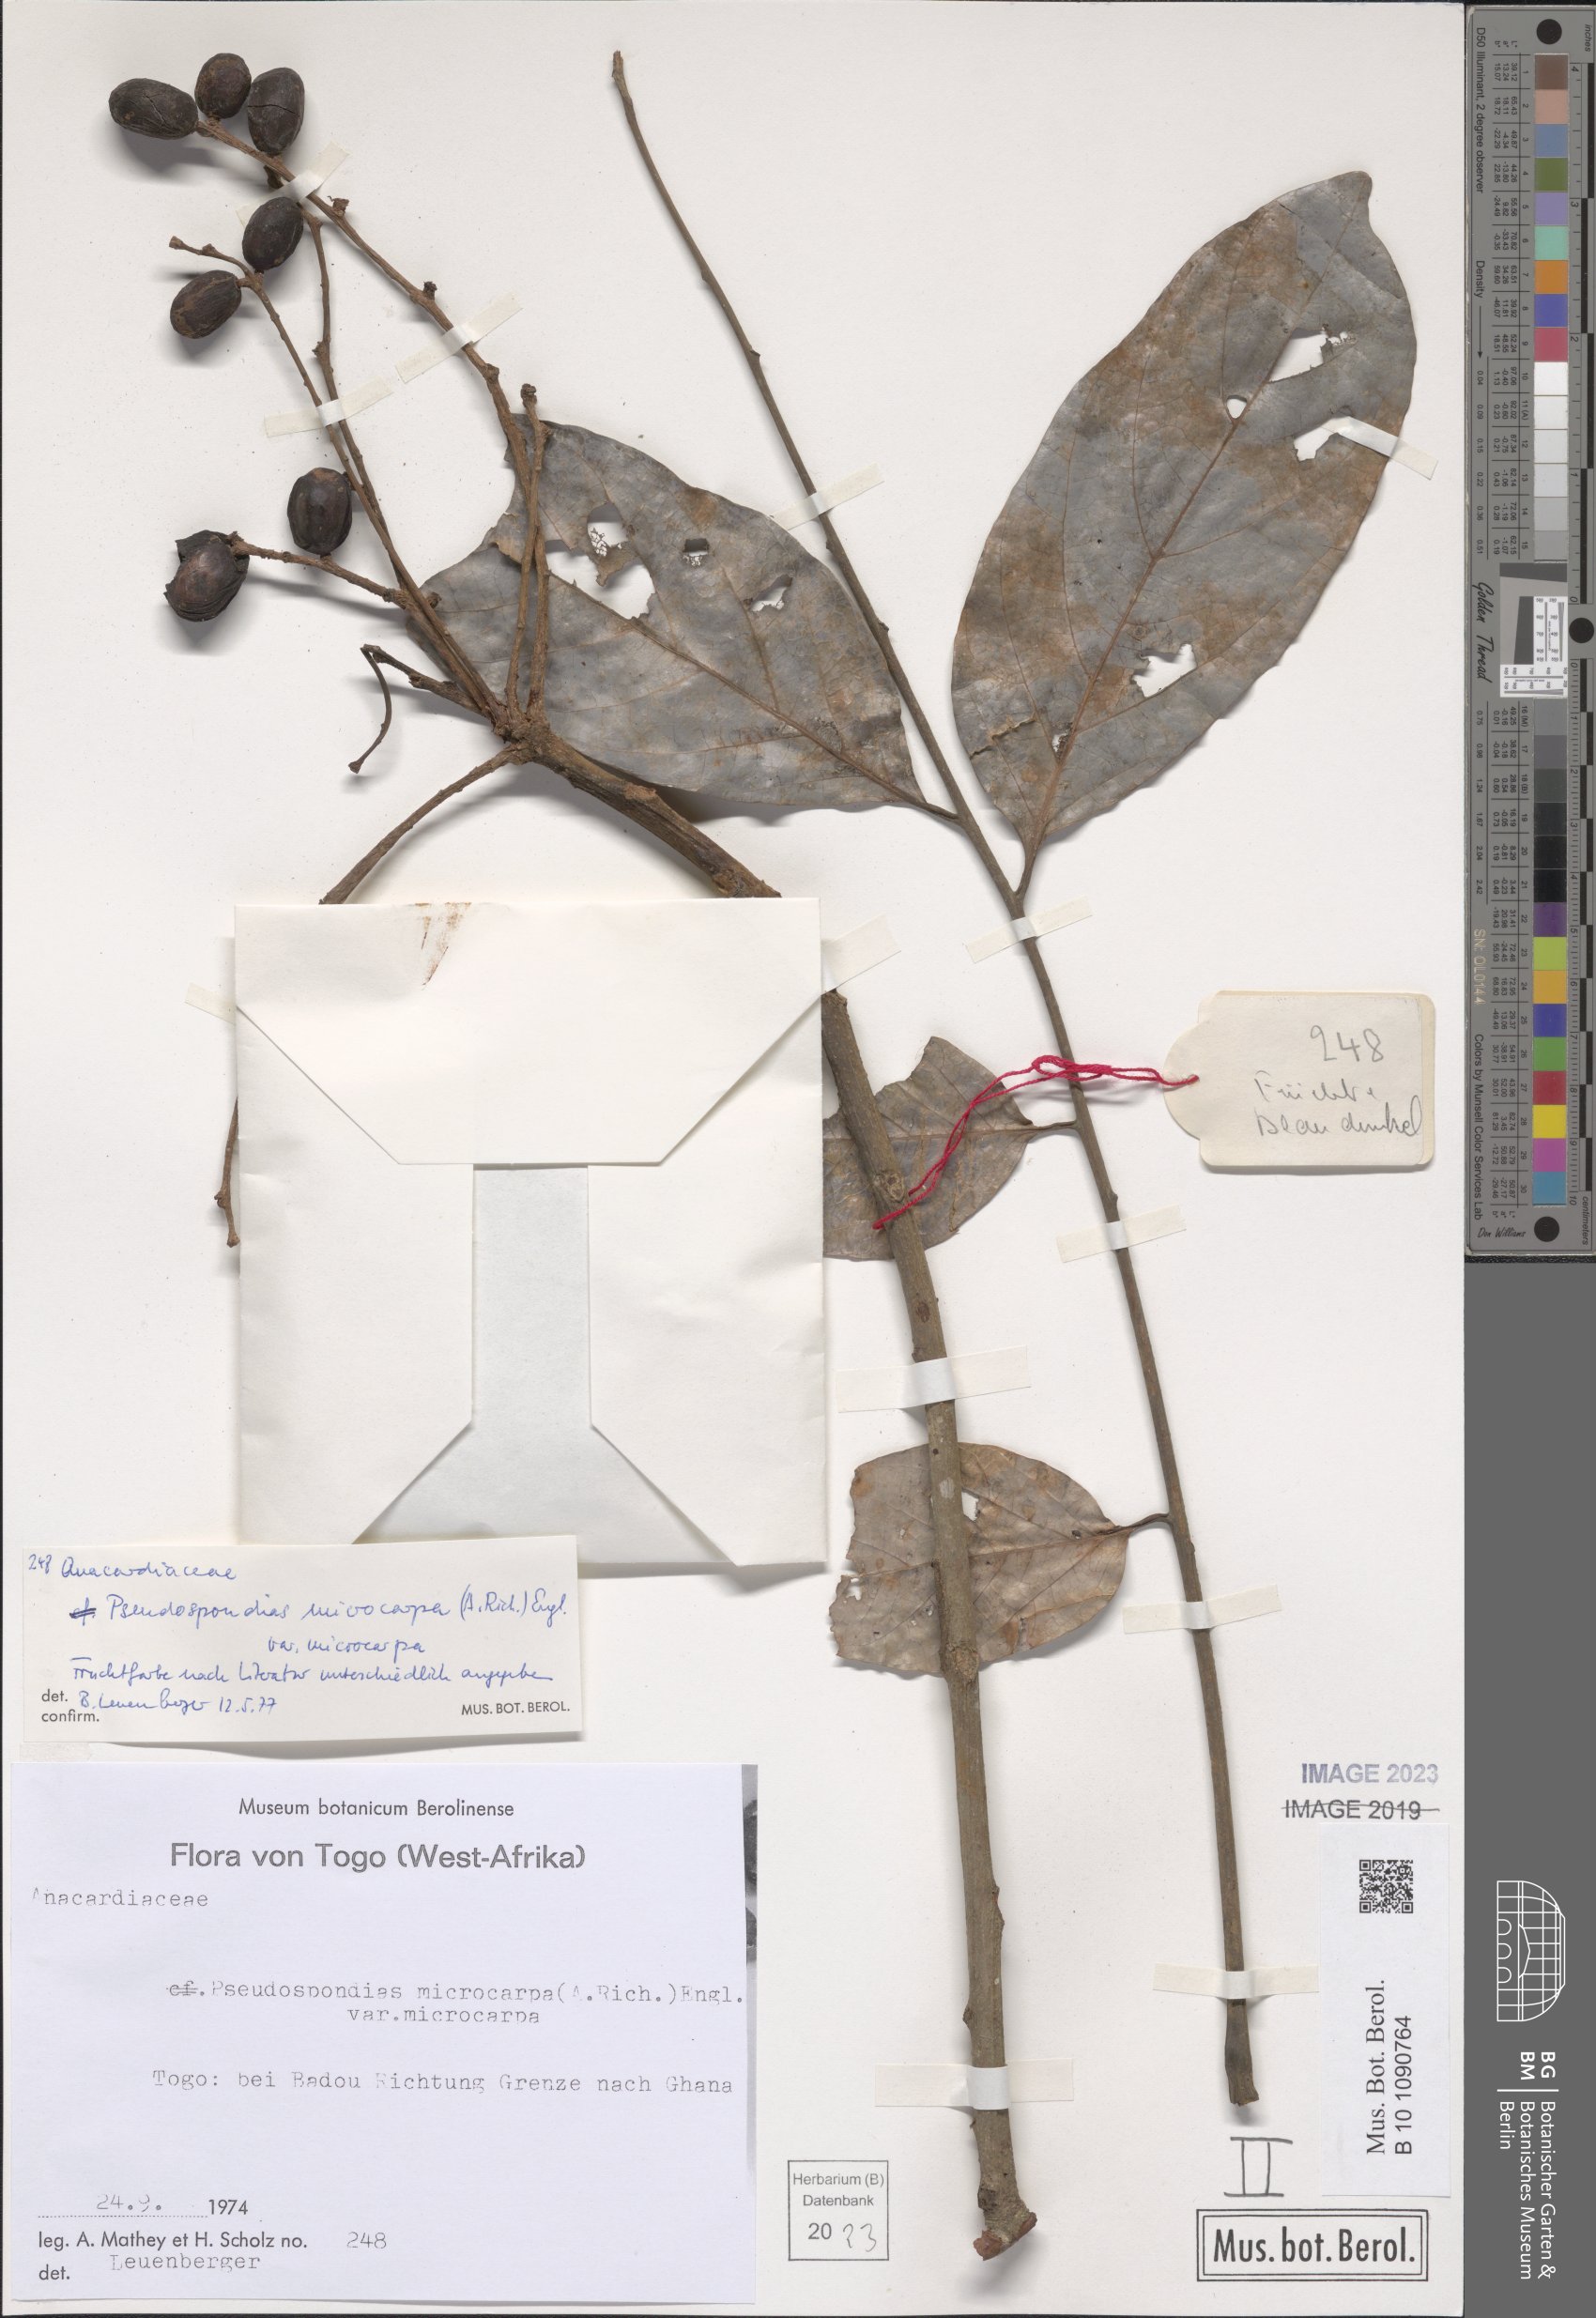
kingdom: Plantae
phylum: Tracheophyta
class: Magnoliopsida
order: Sapindales
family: Anacardiaceae
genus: Pseudospondias
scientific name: Pseudospondias microcarpa
